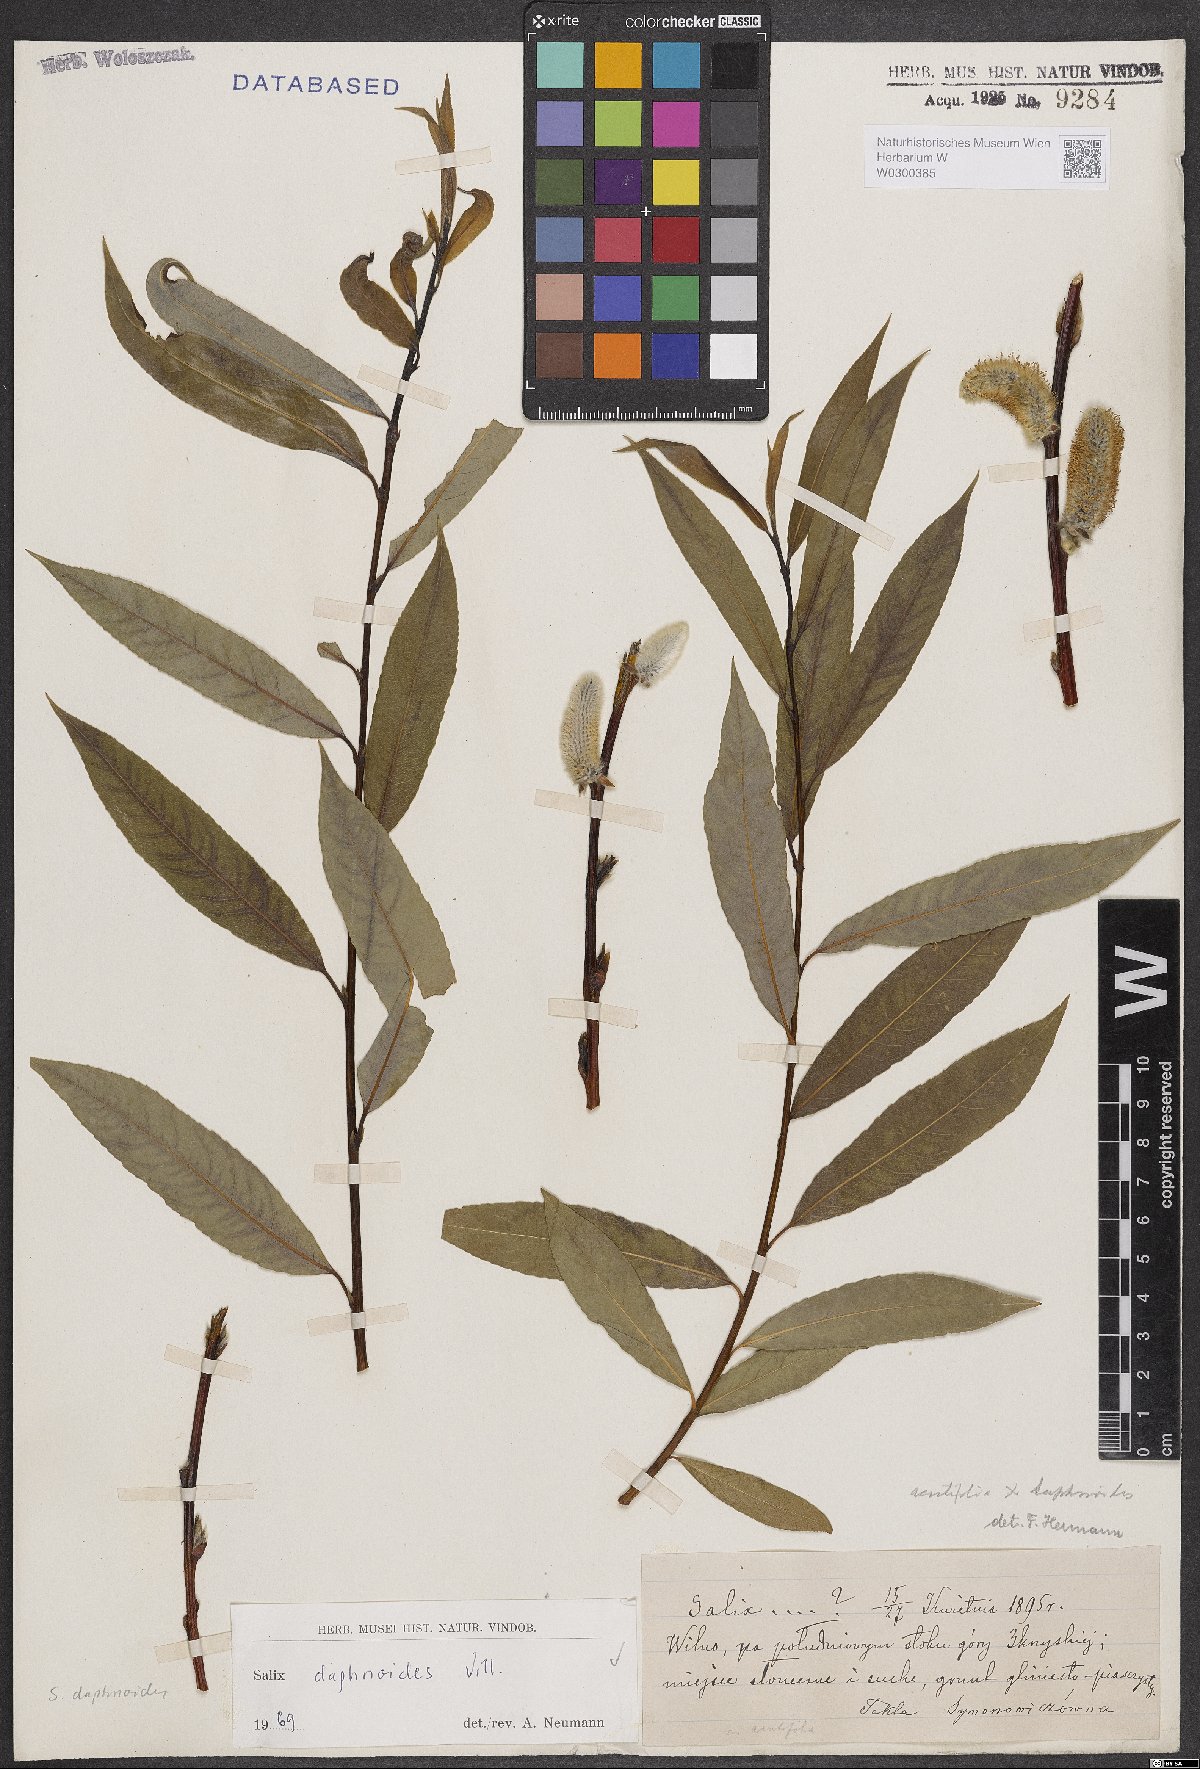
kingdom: Plantae
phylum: Tracheophyta
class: Magnoliopsida
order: Malpighiales
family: Salicaceae
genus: Salix
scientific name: Salix daphnoides
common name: European violet-willow
